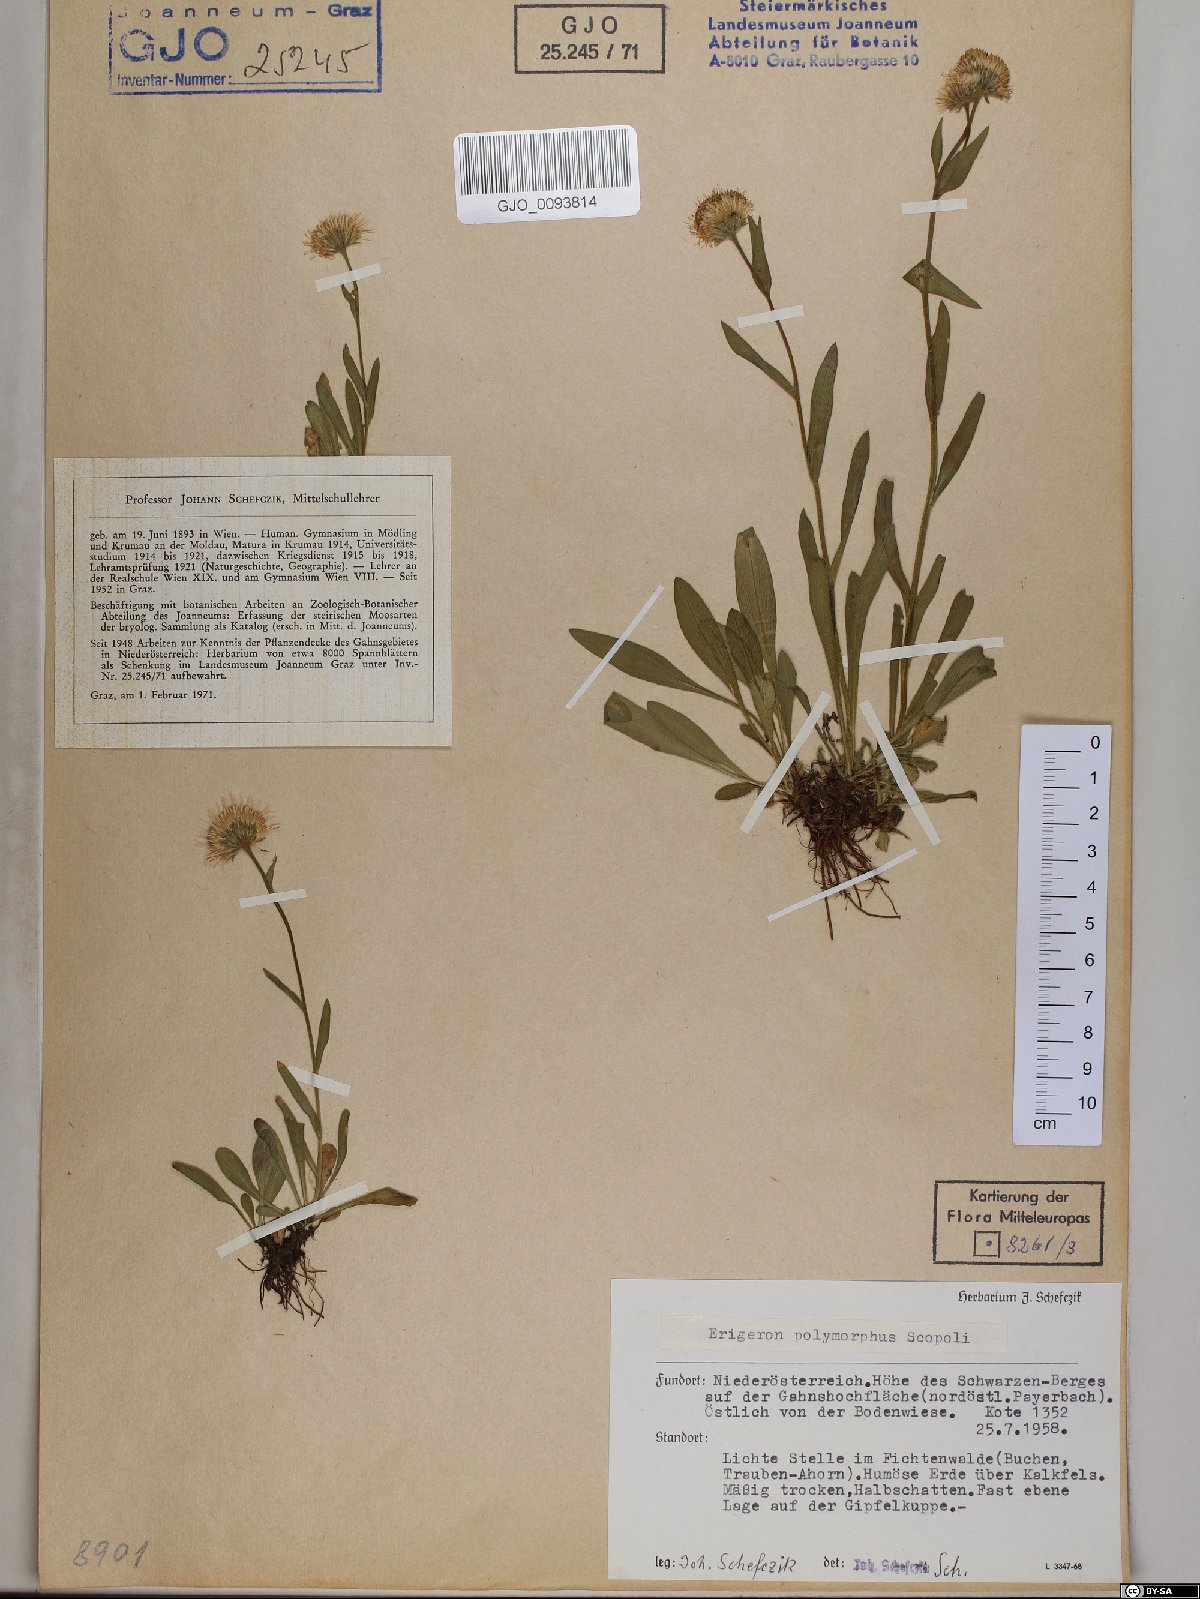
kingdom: Plantae
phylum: Tracheophyta
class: Magnoliopsida
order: Asterales
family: Asteraceae
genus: Erigeron
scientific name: Erigeron alpinus
